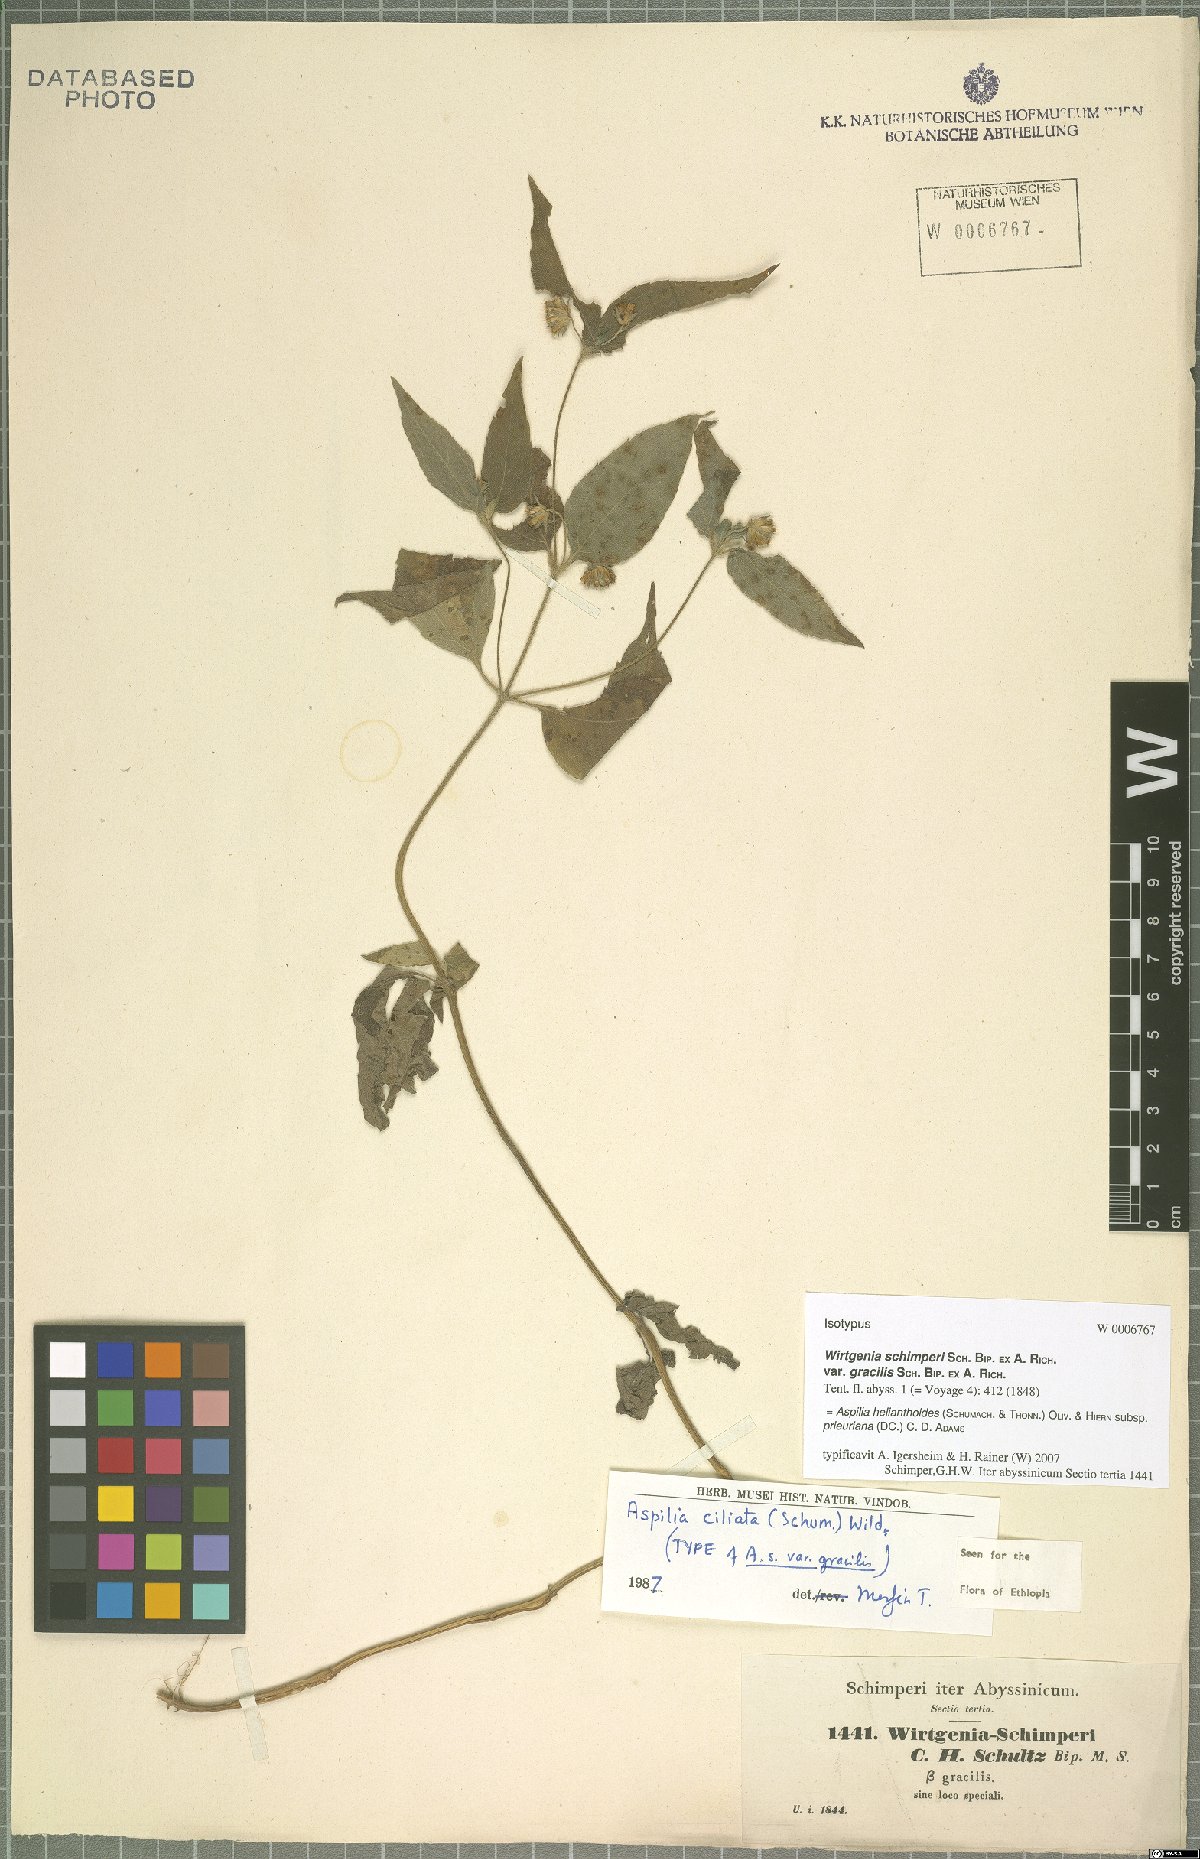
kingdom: Plantae
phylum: Tracheophyta
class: Magnoliopsida
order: Asterales
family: Asteraceae
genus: Aspilia
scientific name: Aspilia helianthoides
